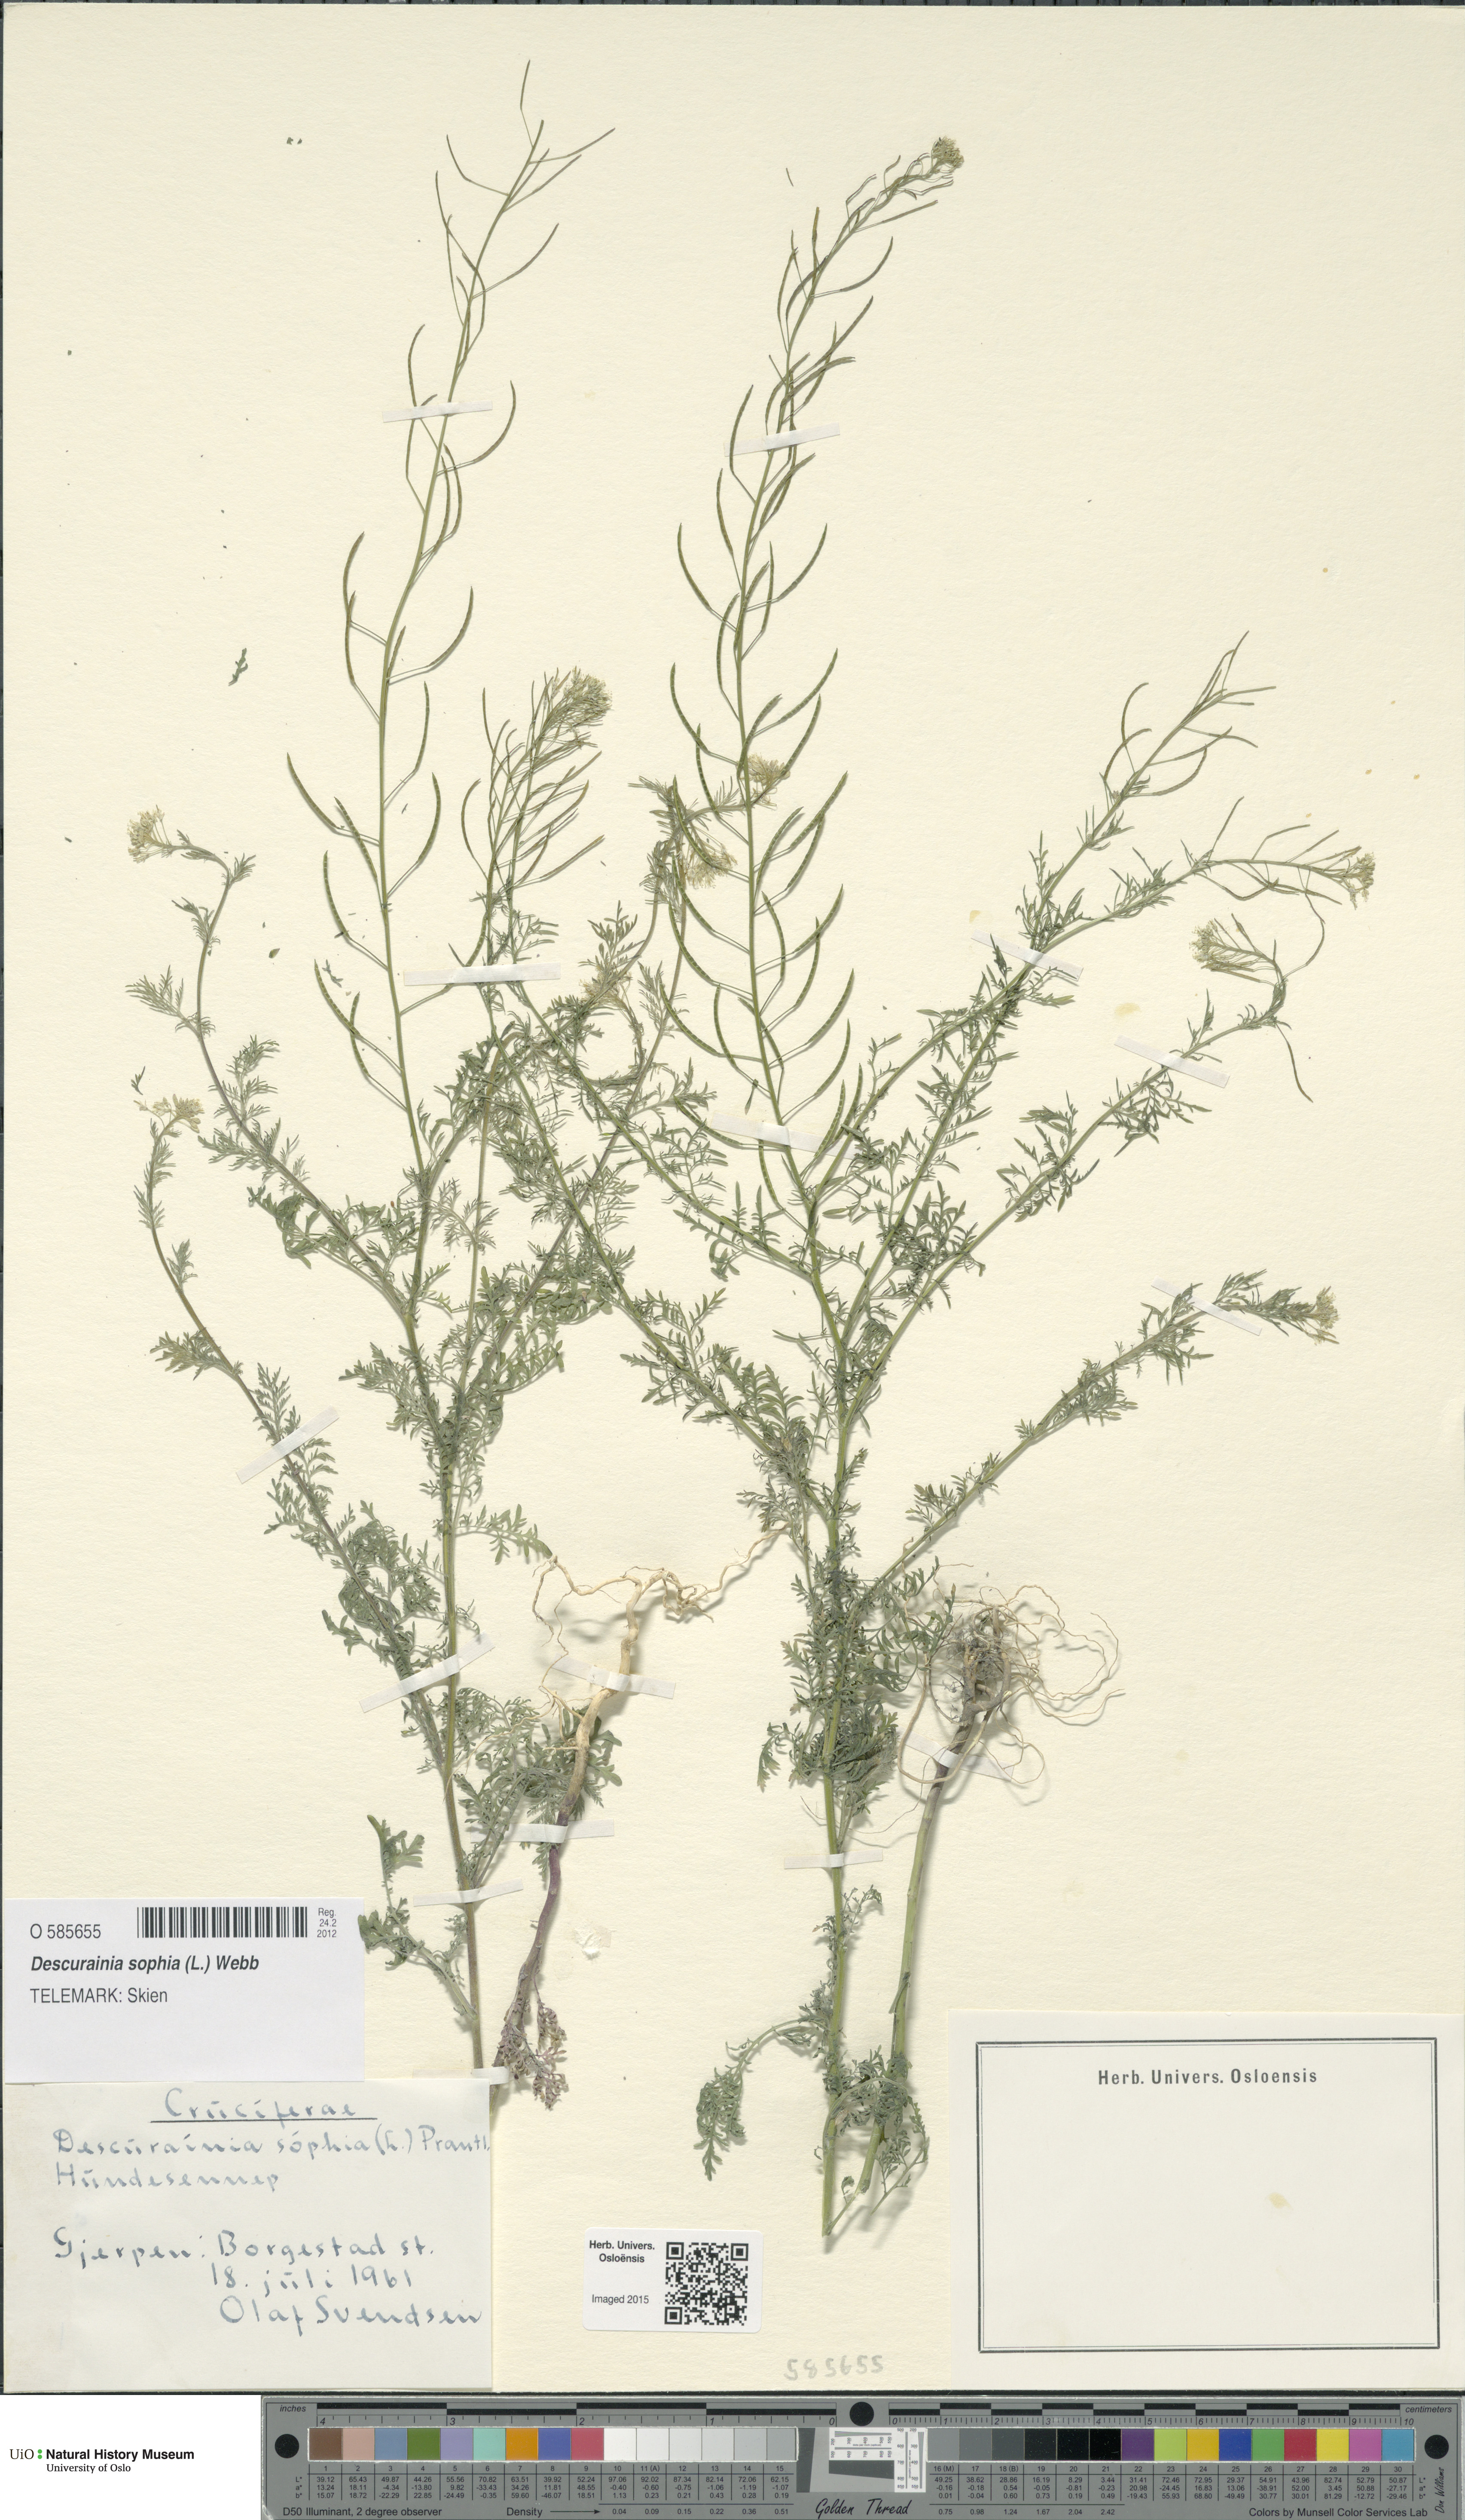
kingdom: Plantae
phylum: Tracheophyta
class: Magnoliopsida
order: Brassicales
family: Brassicaceae
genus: Descurainia
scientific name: Descurainia sophia
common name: Flixweed
